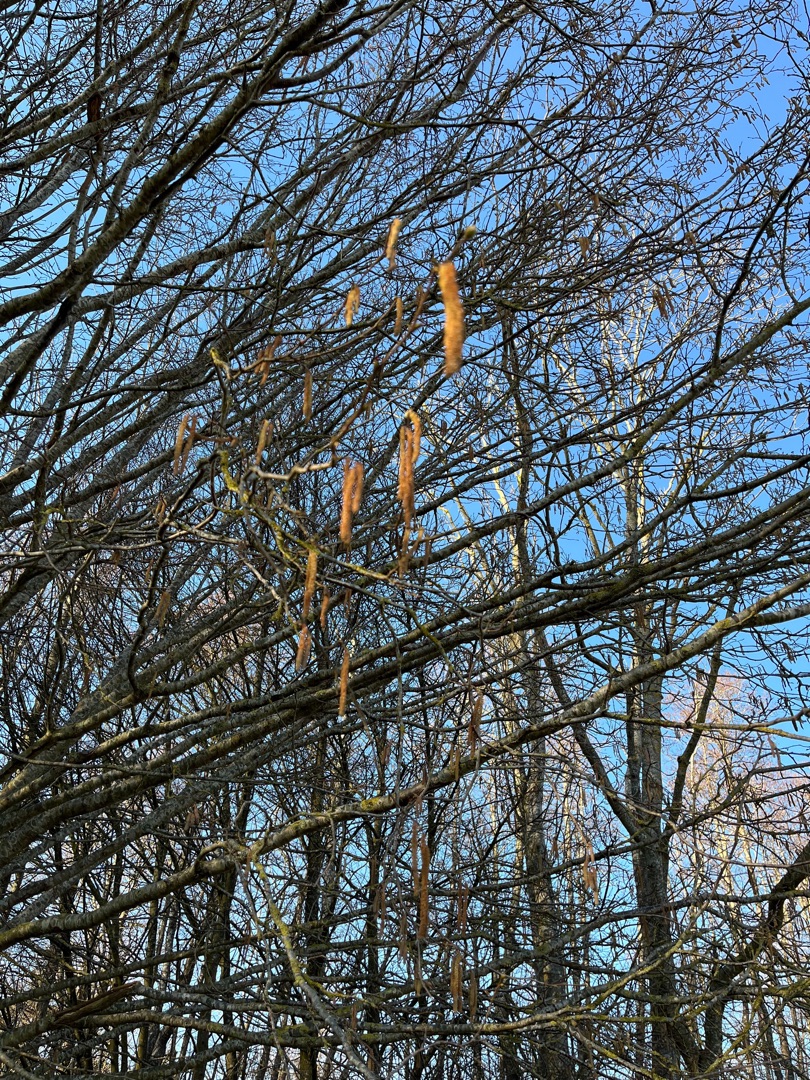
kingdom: Plantae
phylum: Tracheophyta
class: Magnoliopsida
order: Fagales
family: Betulaceae
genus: Corylus
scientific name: Corylus avellana
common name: Hassel
